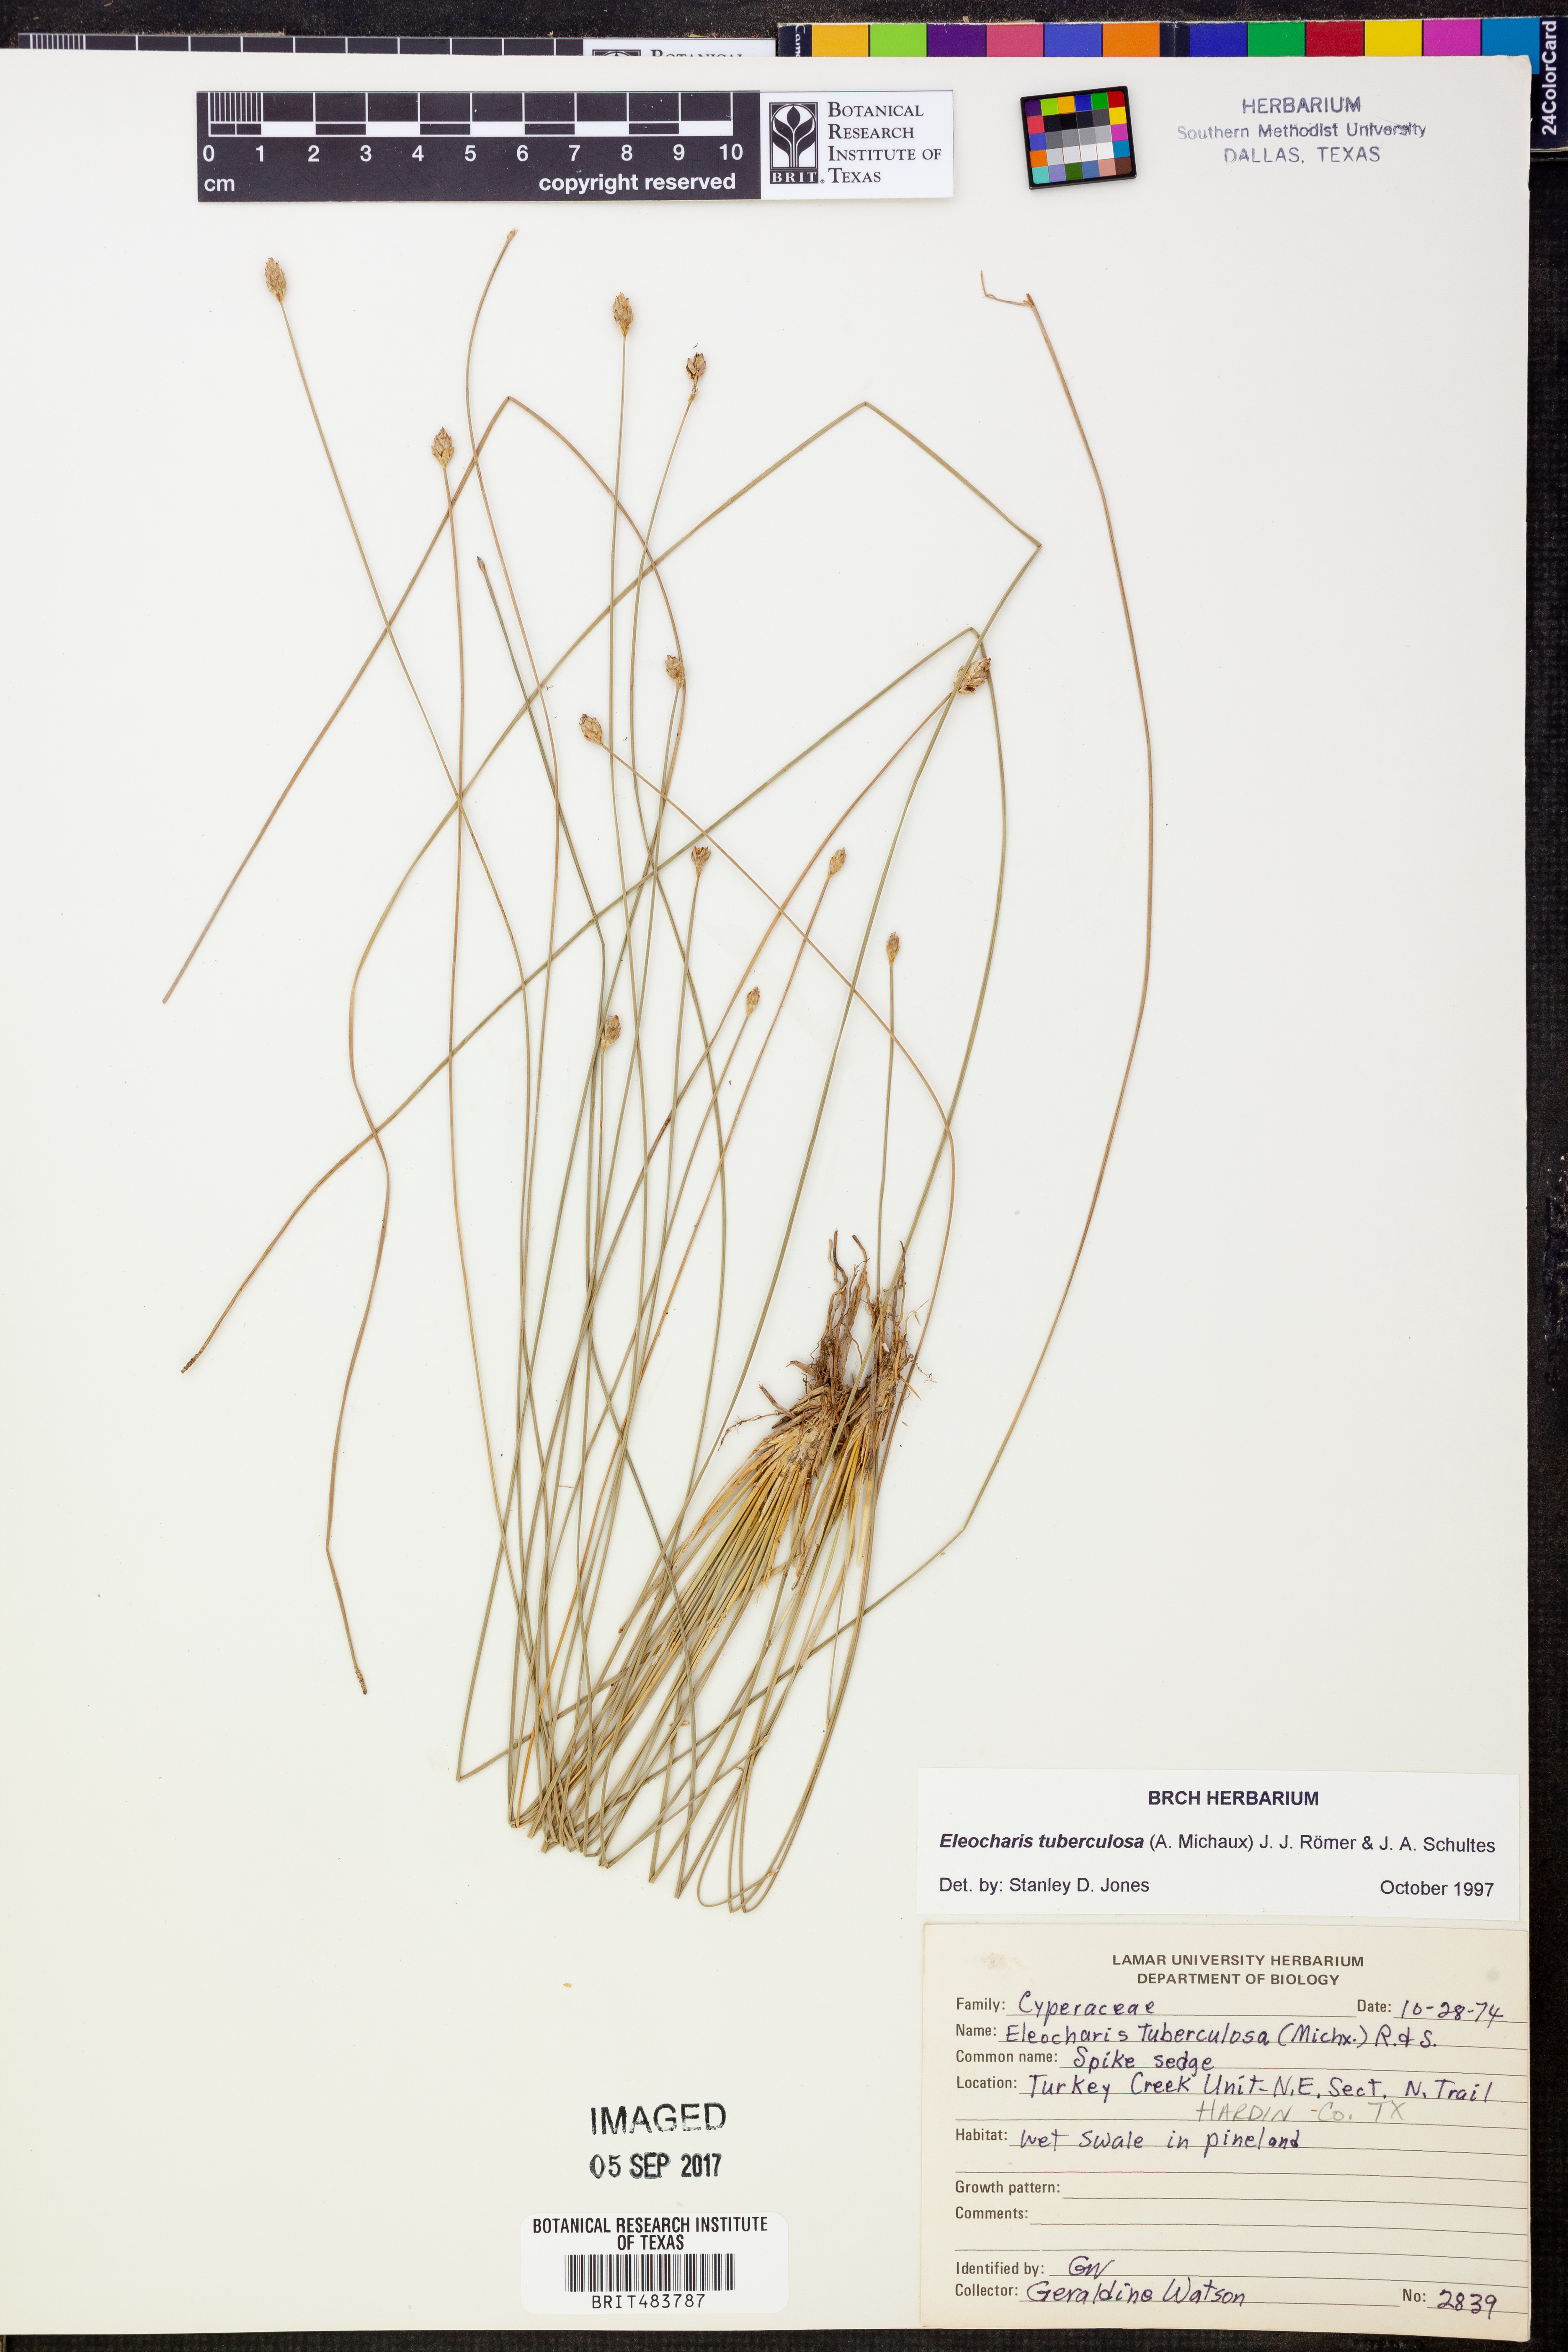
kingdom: Plantae
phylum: Tracheophyta
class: Liliopsida
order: Poales
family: Cyperaceae
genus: Eleocharis
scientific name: Eleocharis tuberculosa
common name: Cone-cup spikerush
